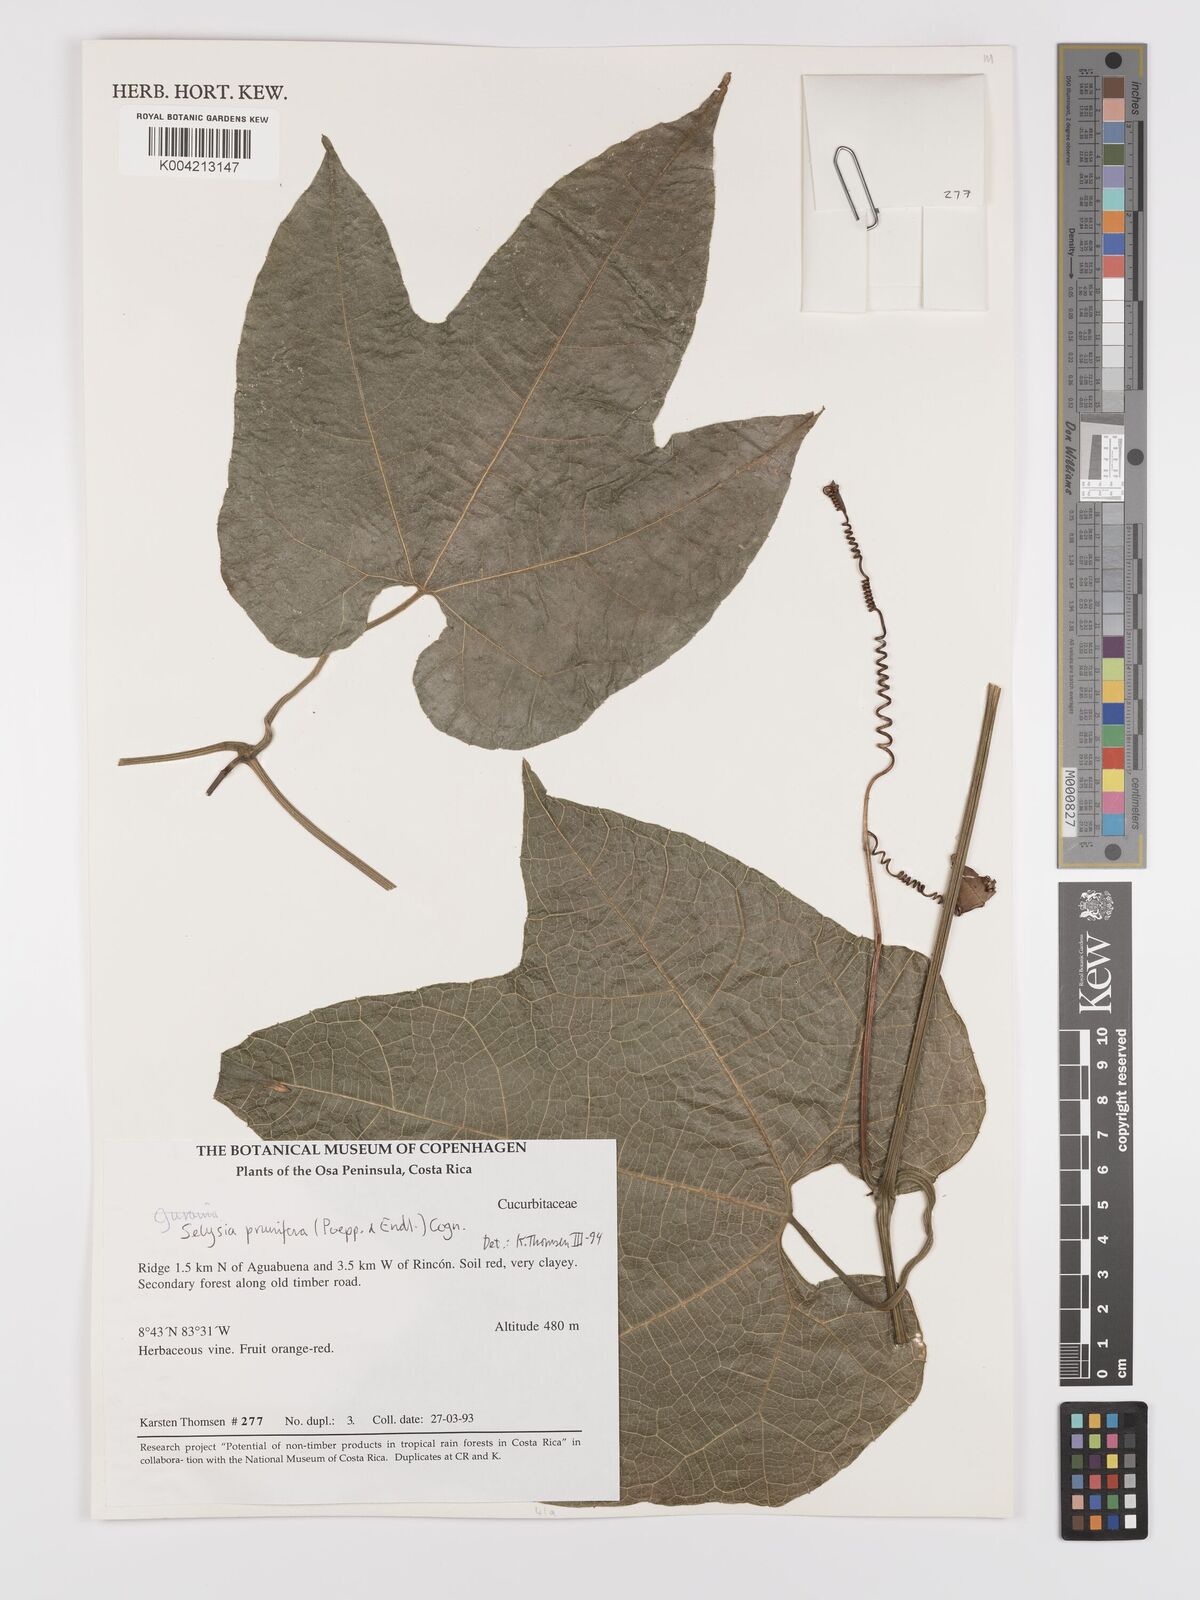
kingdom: Plantae
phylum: Tracheophyta
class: Magnoliopsida
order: Cucurbitales
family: Cucurbitaceae
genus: Cayaponia
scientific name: Cayaponia prunifera
